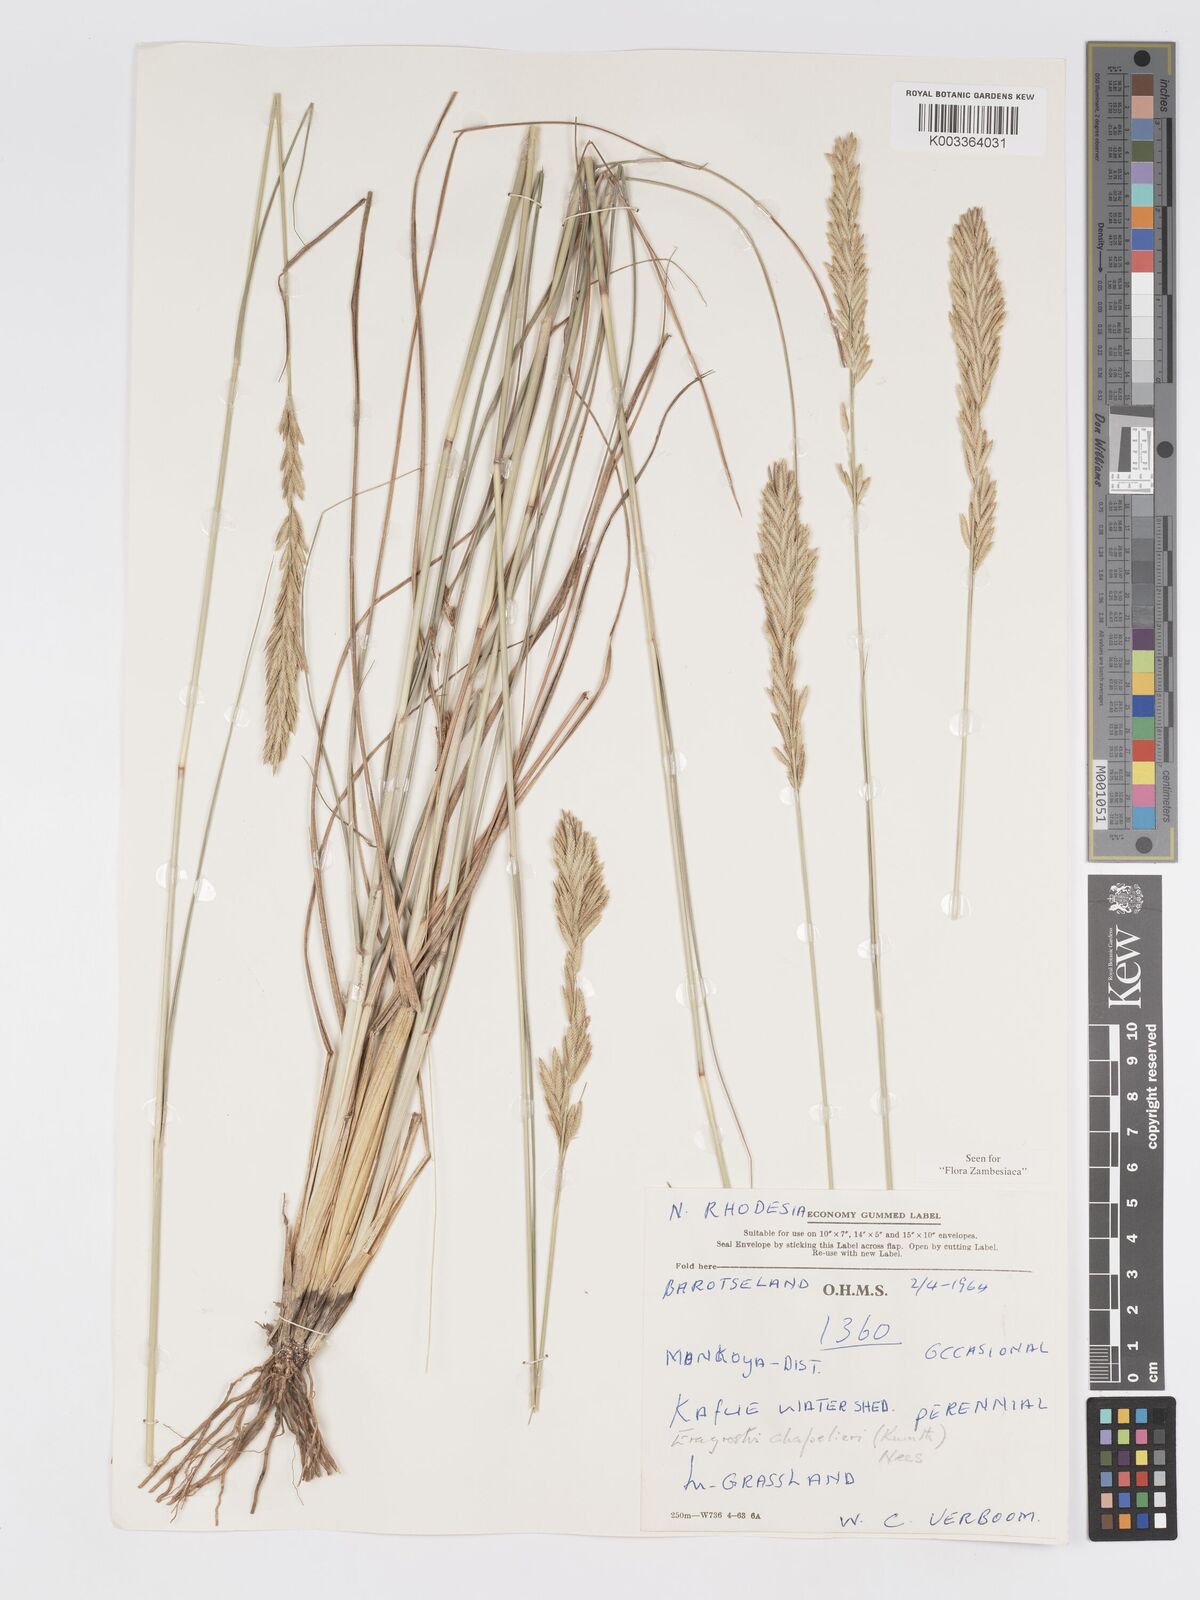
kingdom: Plantae
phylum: Tracheophyta
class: Liliopsida
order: Poales
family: Poaceae
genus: Eragrostis
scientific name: Eragrostis chapelieri
